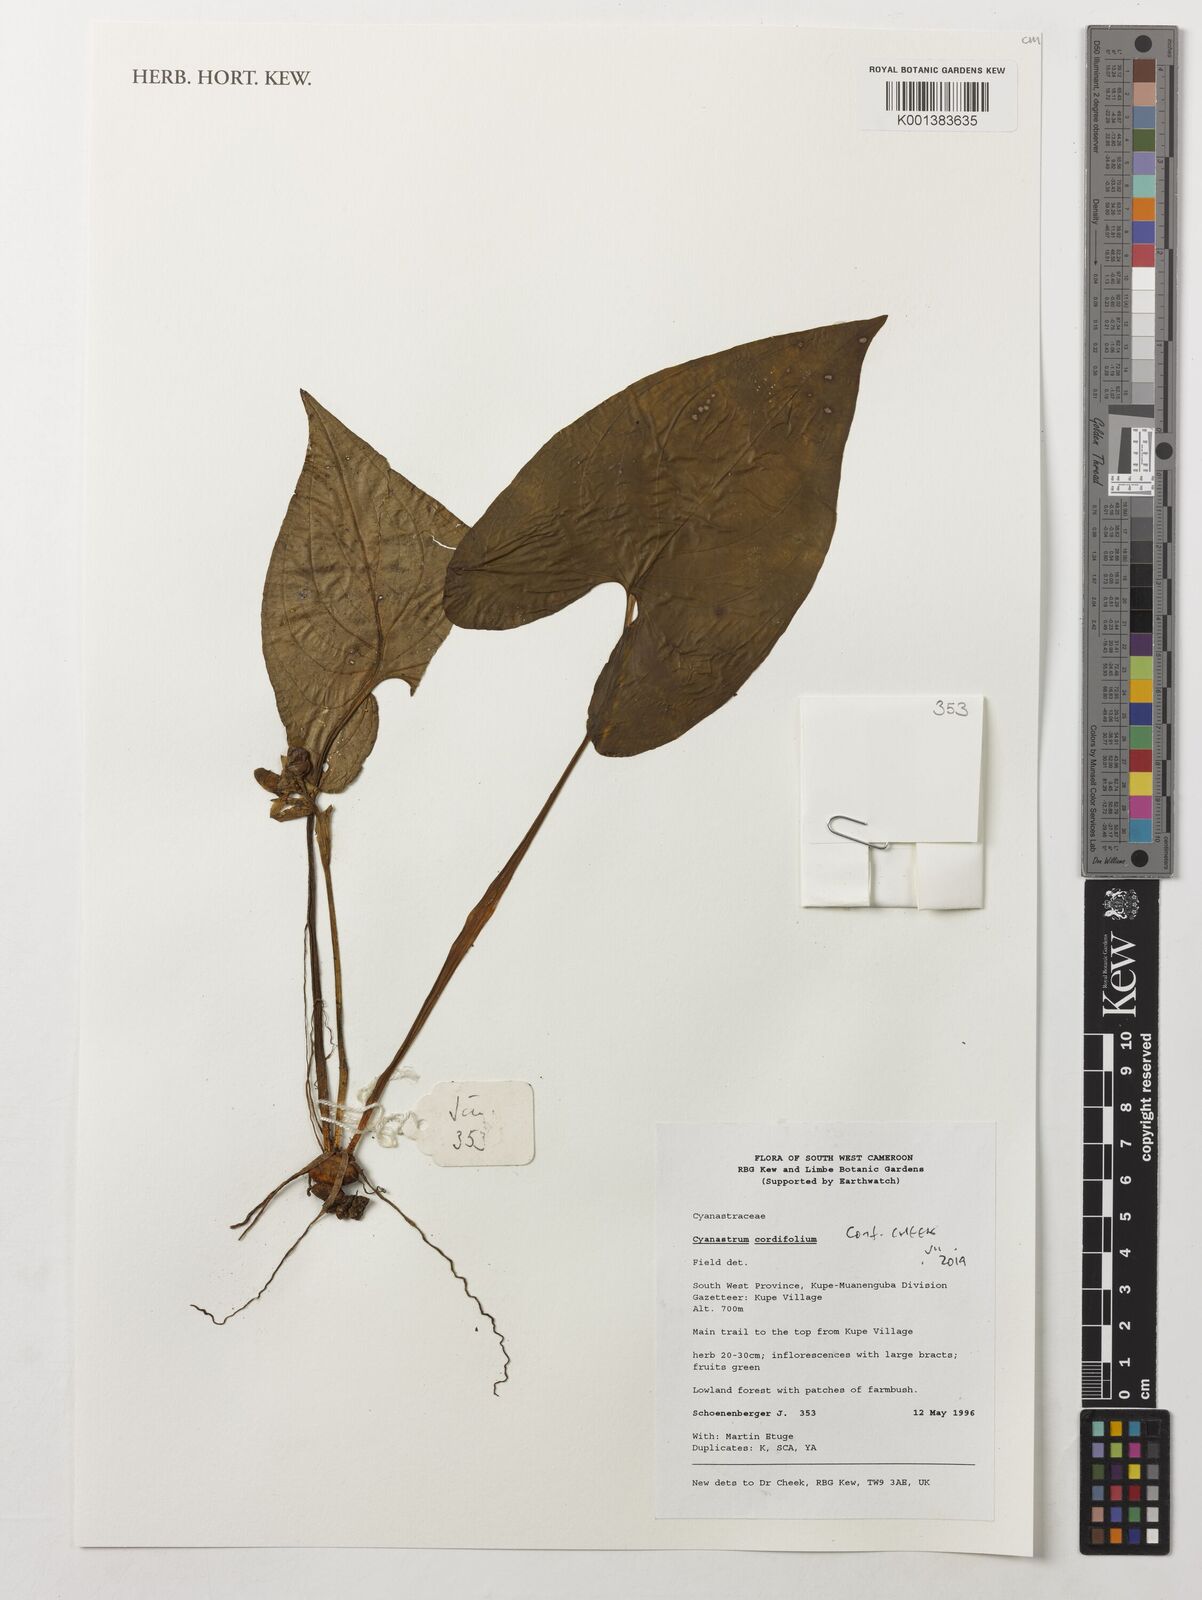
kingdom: Plantae
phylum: Tracheophyta
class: Liliopsida
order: Asparagales
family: Tecophilaeaceae
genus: Cyanastrum
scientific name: Cyanastrum cordifolium
